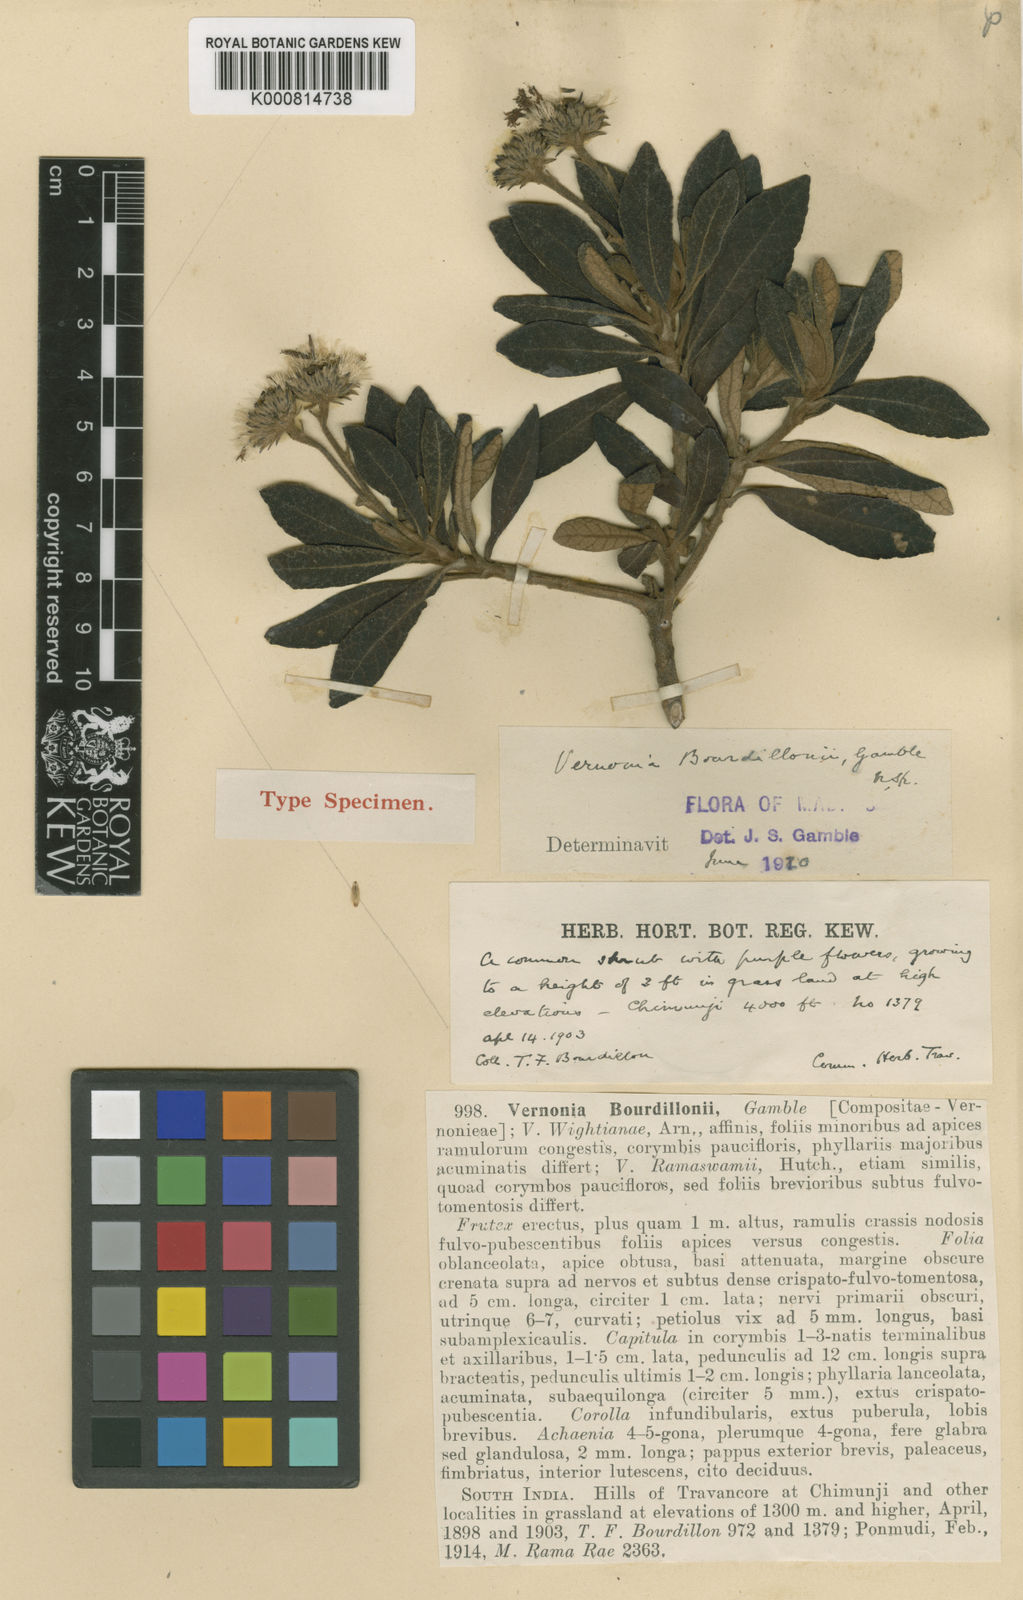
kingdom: Plantae
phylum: Tracheophyta
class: Magnoliopsida
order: Asterales
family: Asteraceae
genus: Uniyala
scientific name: Uniyala bourdillonii
